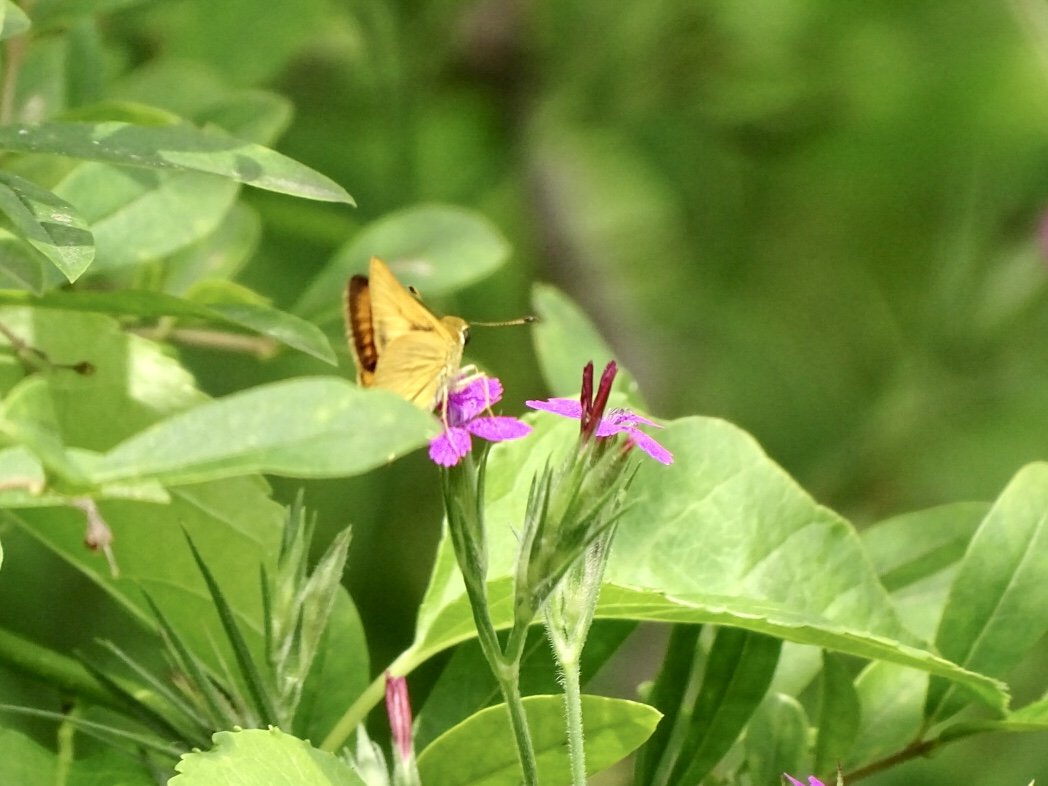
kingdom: Animalia
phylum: Arthropoda
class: Insecta
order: Lepidoptera
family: Hesperiidae
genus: Thymelicus
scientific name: Thymelicus lineola
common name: European Skipper
